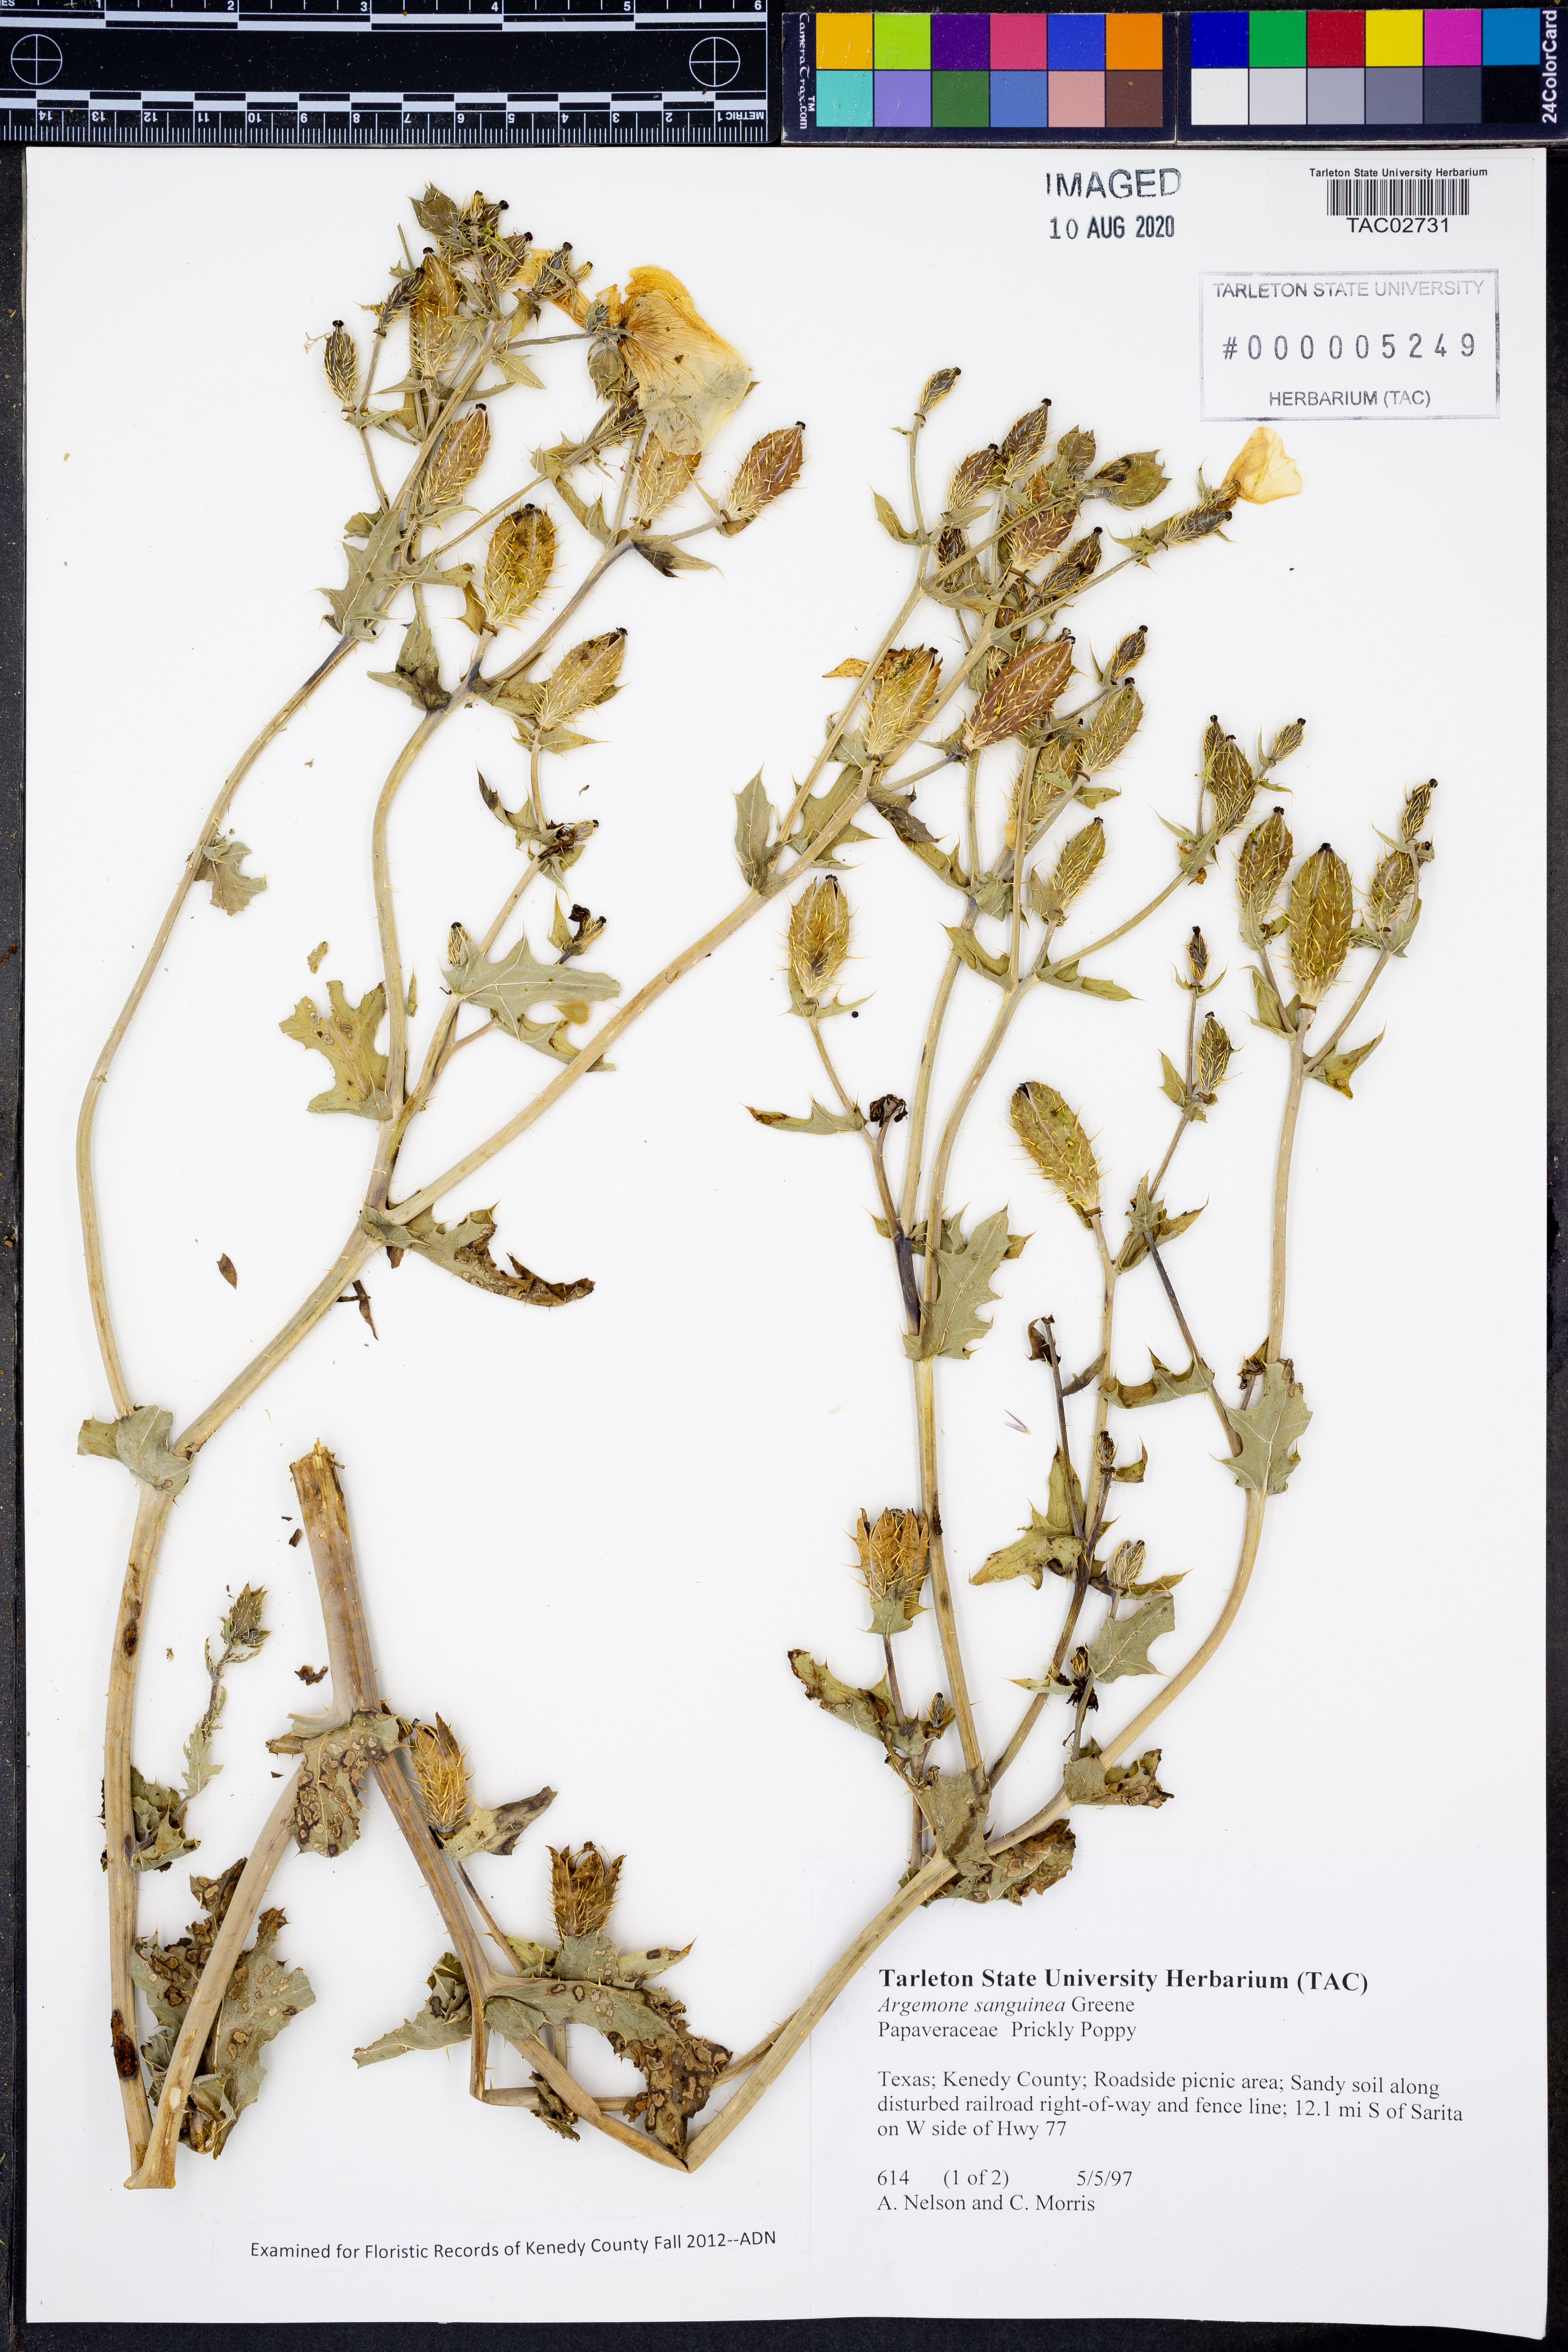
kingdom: Plantae
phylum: Tracheophyta
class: Magnoliopsida
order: Ranunculales
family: Papaveraceae
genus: Argemone
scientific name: Argemone sanguinea
